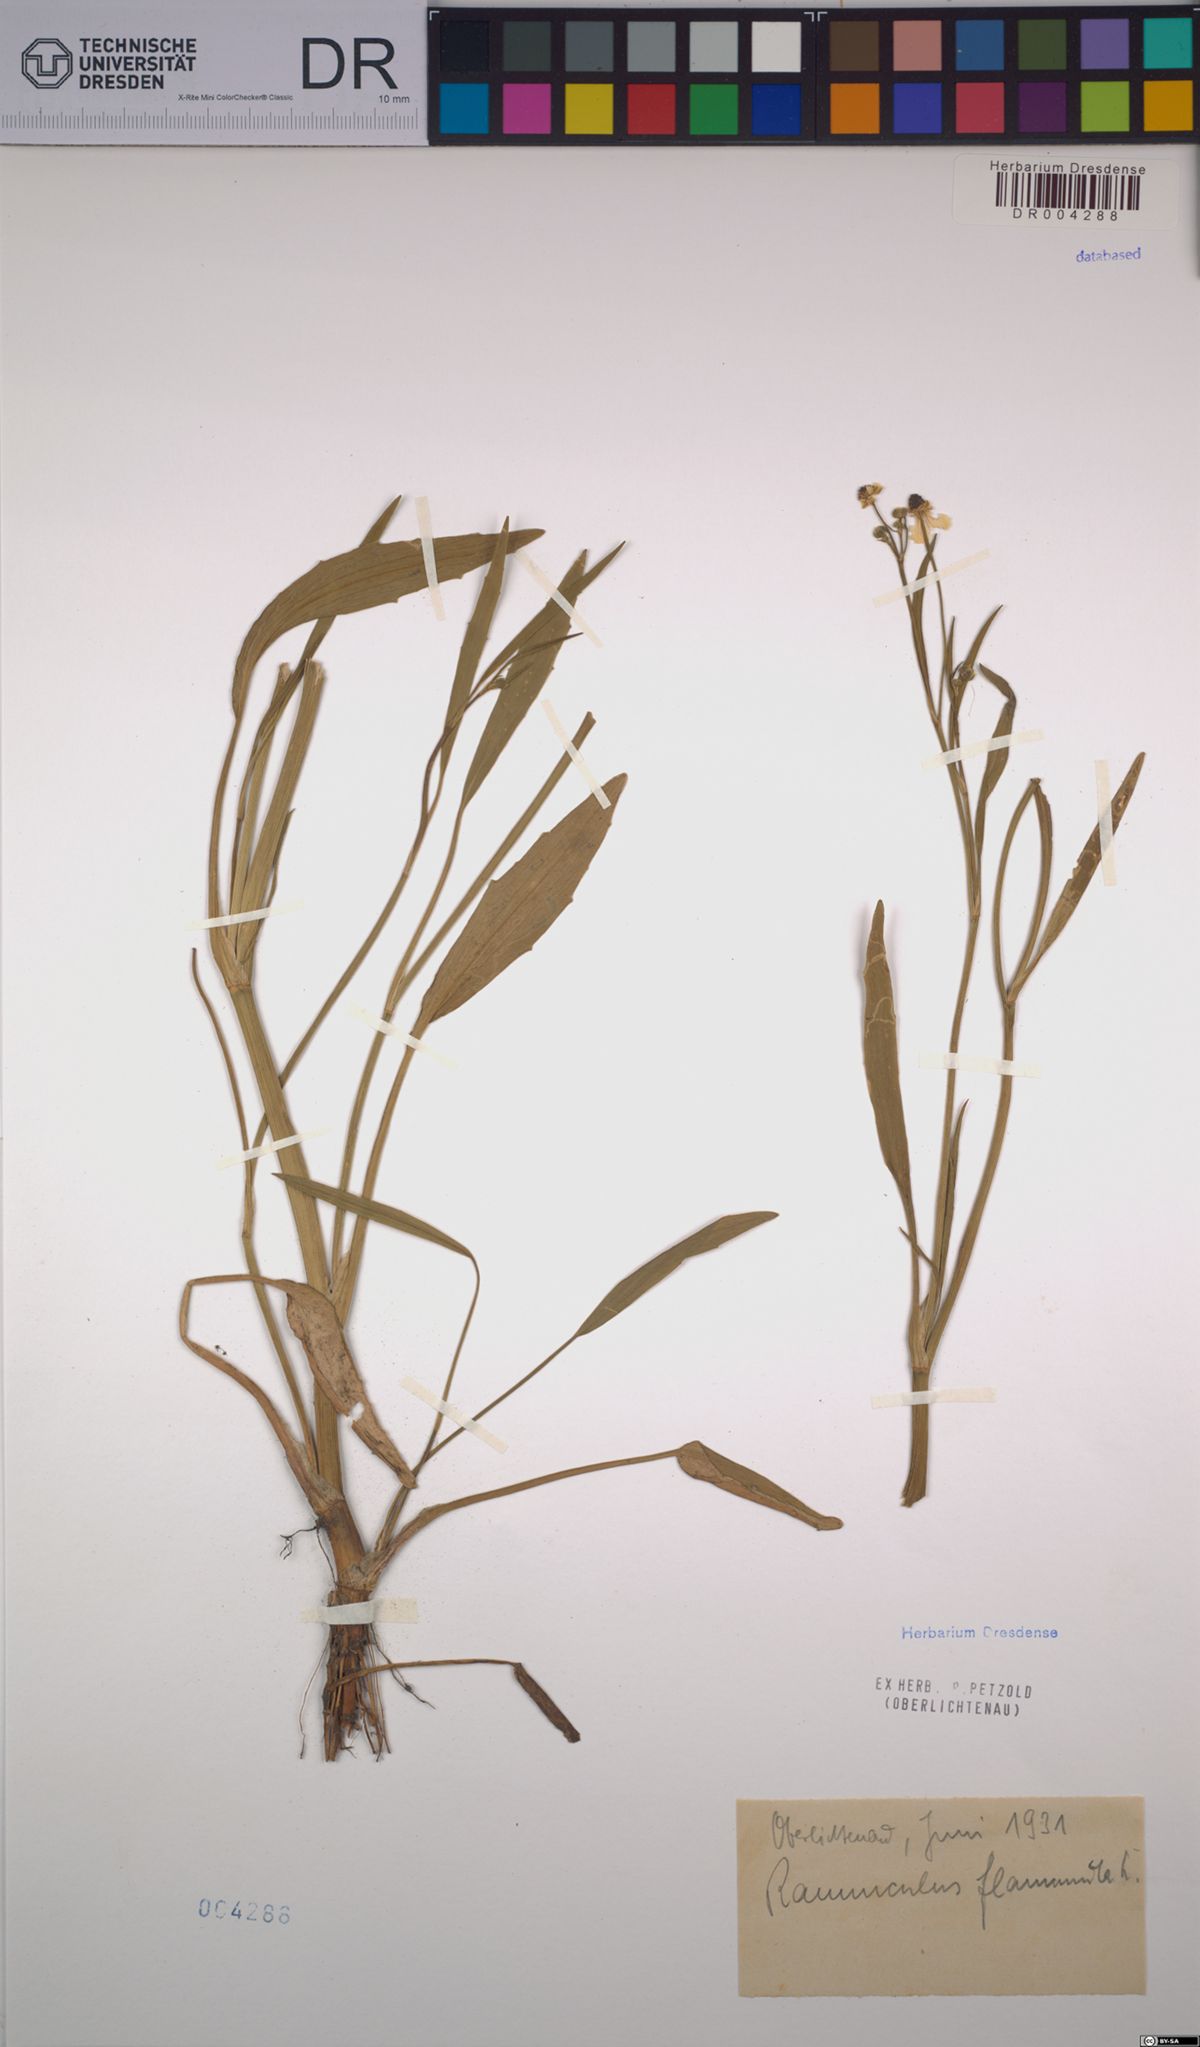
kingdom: Plantae
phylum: Tracheophyta
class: Magnoliopsida
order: Ranunculales
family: Ranunculaceae
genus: Ranunculus
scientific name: Ranunculus flammula
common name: Lesser spearwort
